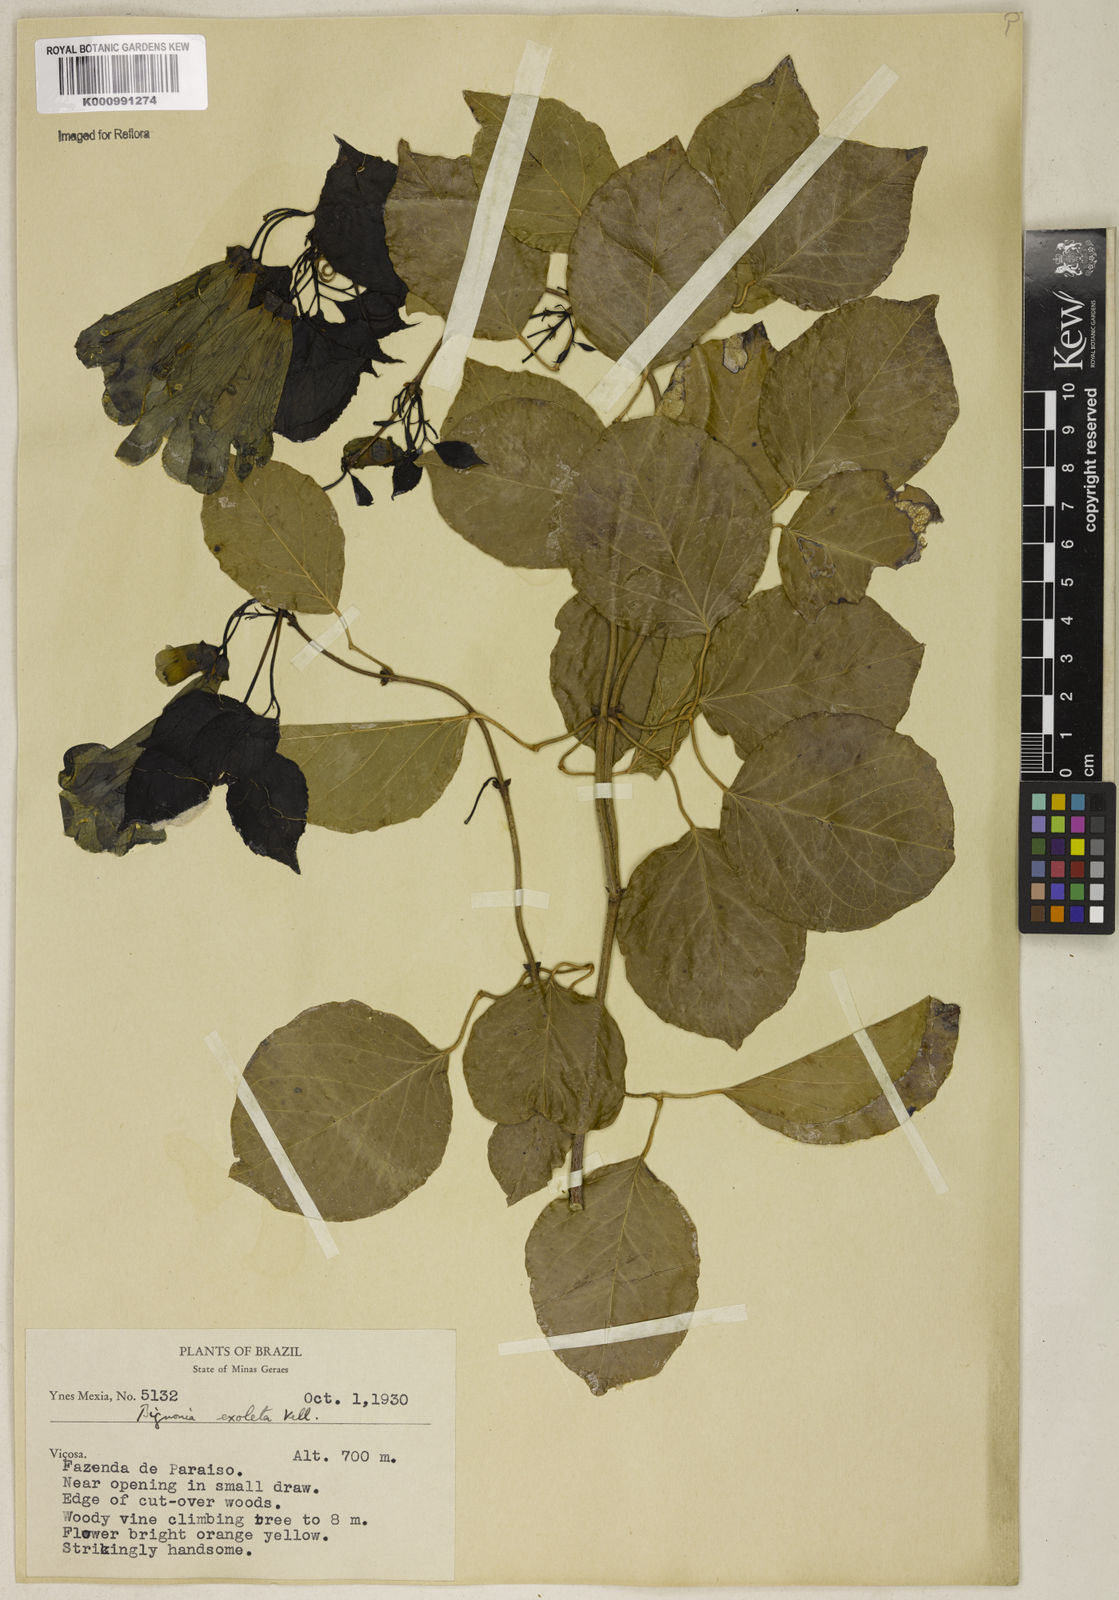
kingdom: Plantae
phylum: Tracheophyta
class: Magnoliopsida
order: Lamiales
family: Bignoniaceae
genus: Dolichandra
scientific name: Dolichandra unguis-cati
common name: Catclaw vine
